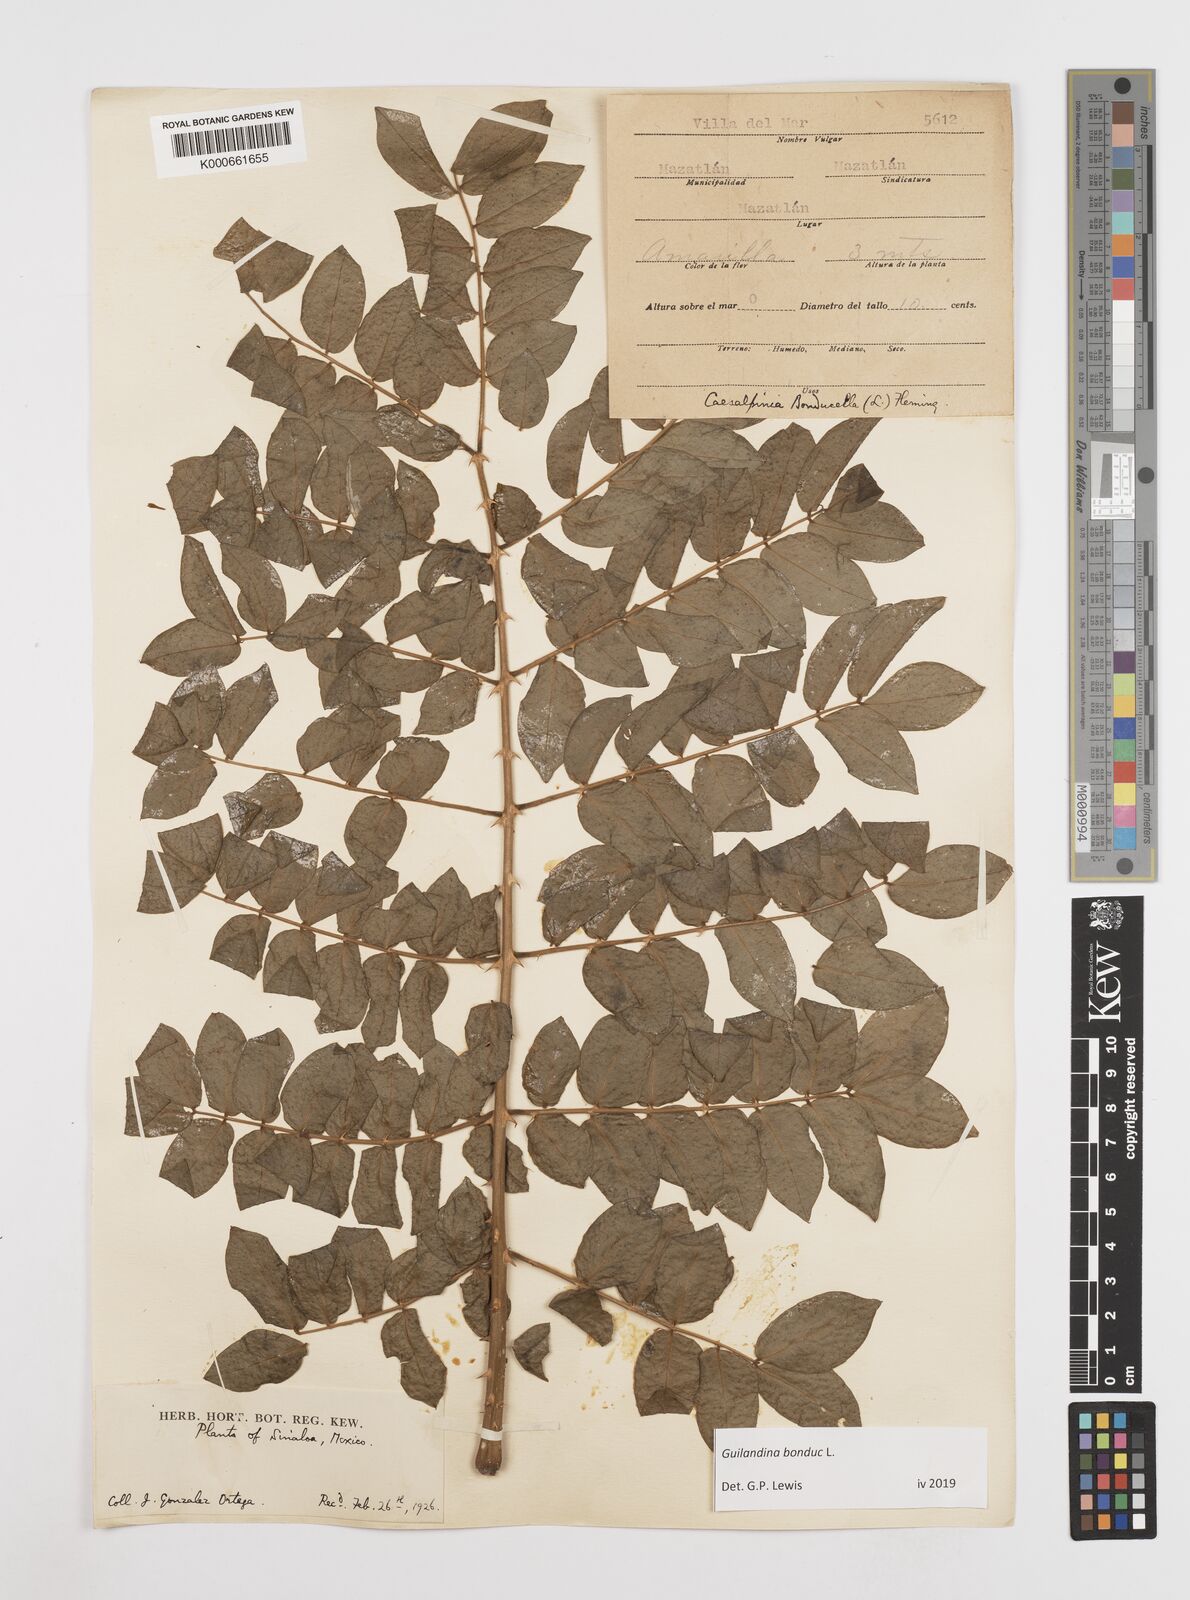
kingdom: Plantae
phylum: Tracheophyta
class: Magnoliopsida
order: Asterales
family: Goodeniaceae
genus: Scaevola
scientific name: Scaevola taccada
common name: Sea lettucetree
